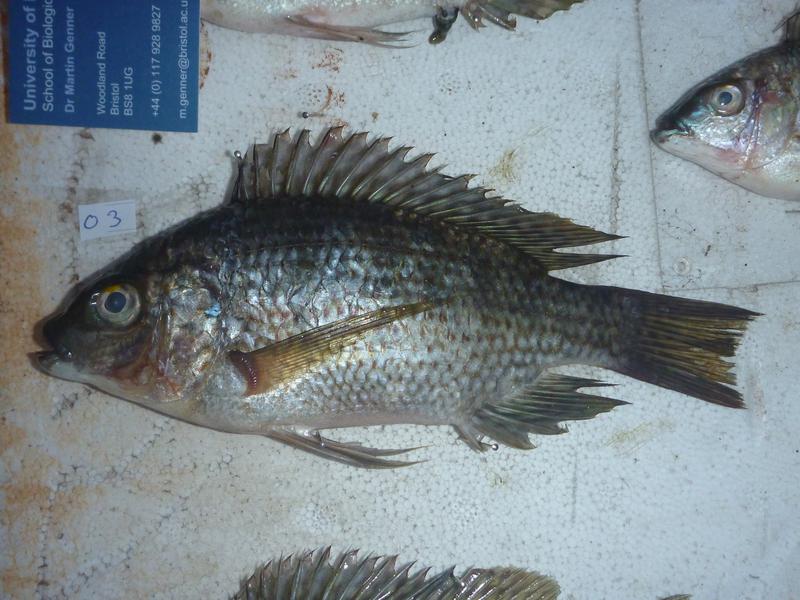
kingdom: Animalia
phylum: Chordata
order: Perciformes
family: Cichlidae
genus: Oreochromis
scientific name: Oreochromis karomo
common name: Karomo
